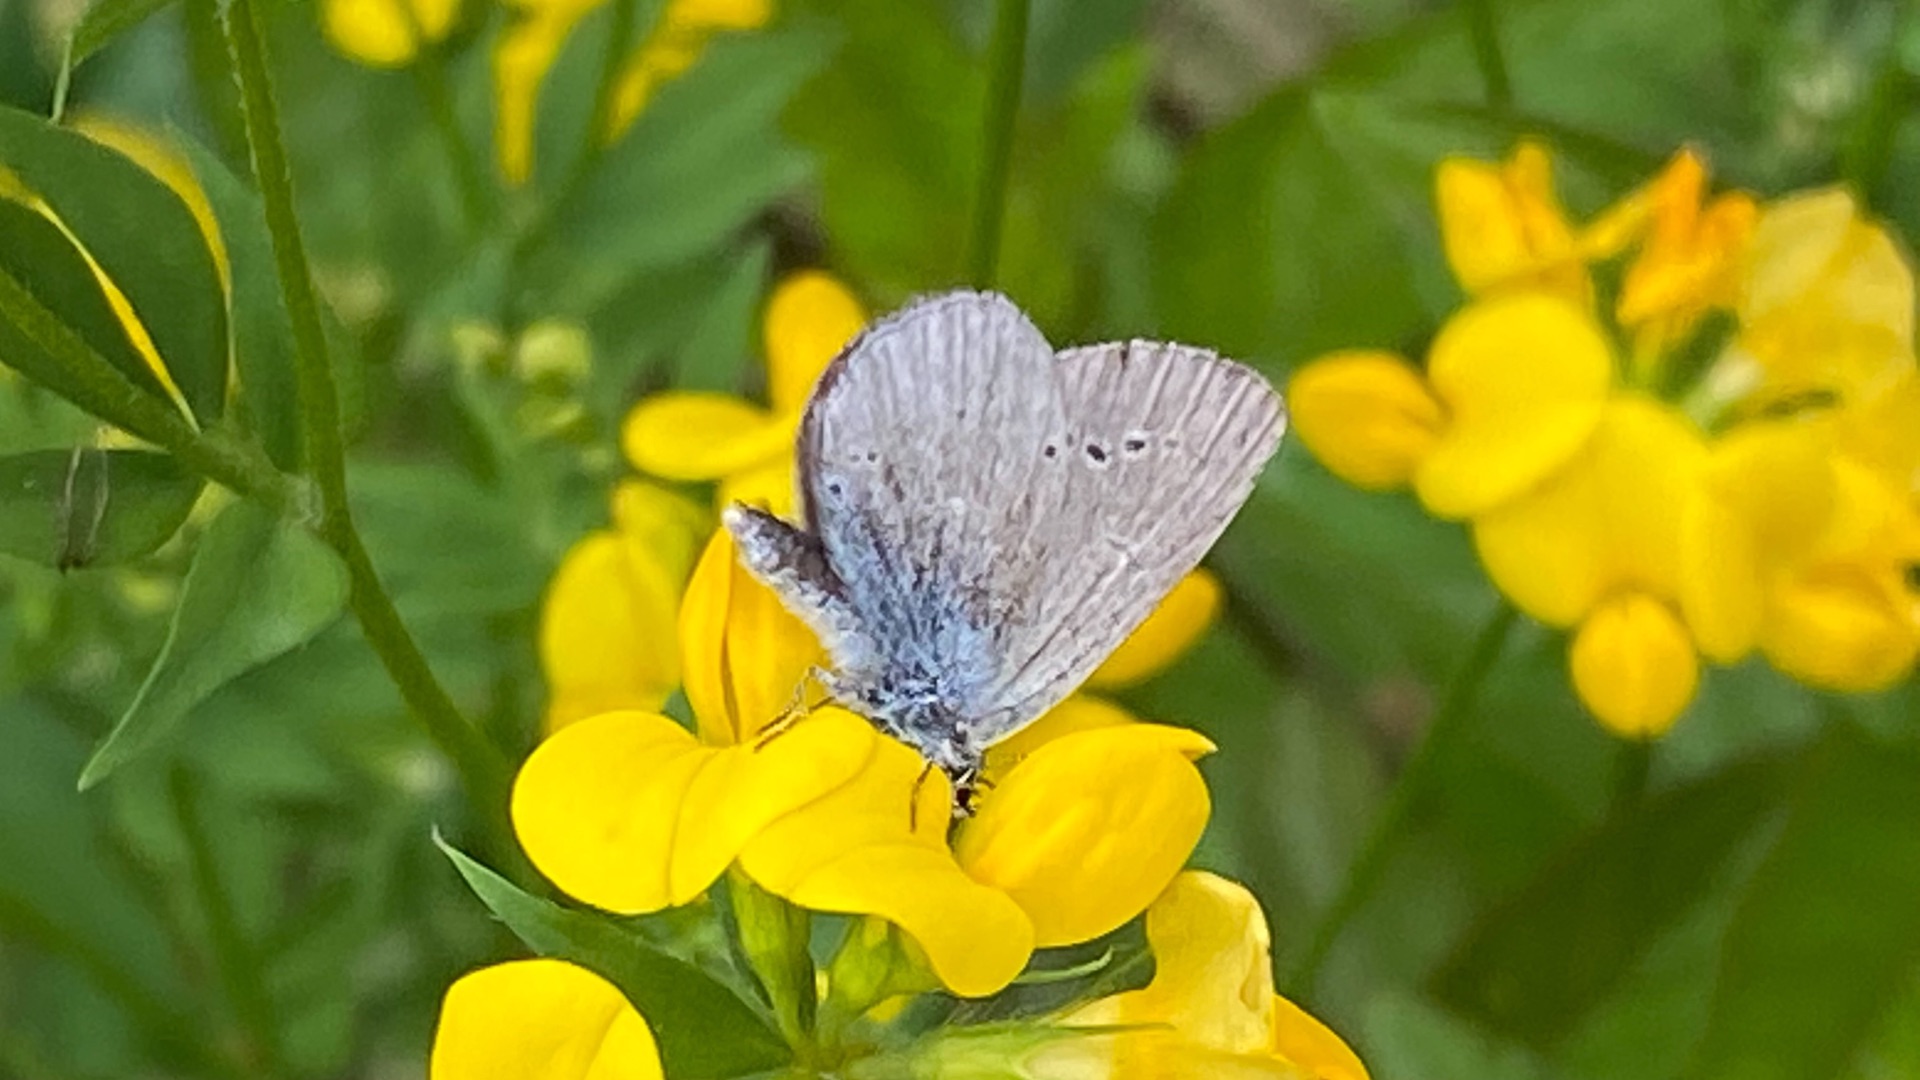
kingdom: Animalia
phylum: Arthropoda
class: Insecta
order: Lepidoptera
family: Lycaenidae
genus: Cupido
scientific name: Cupido minimus
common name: Dværgblåfugl
